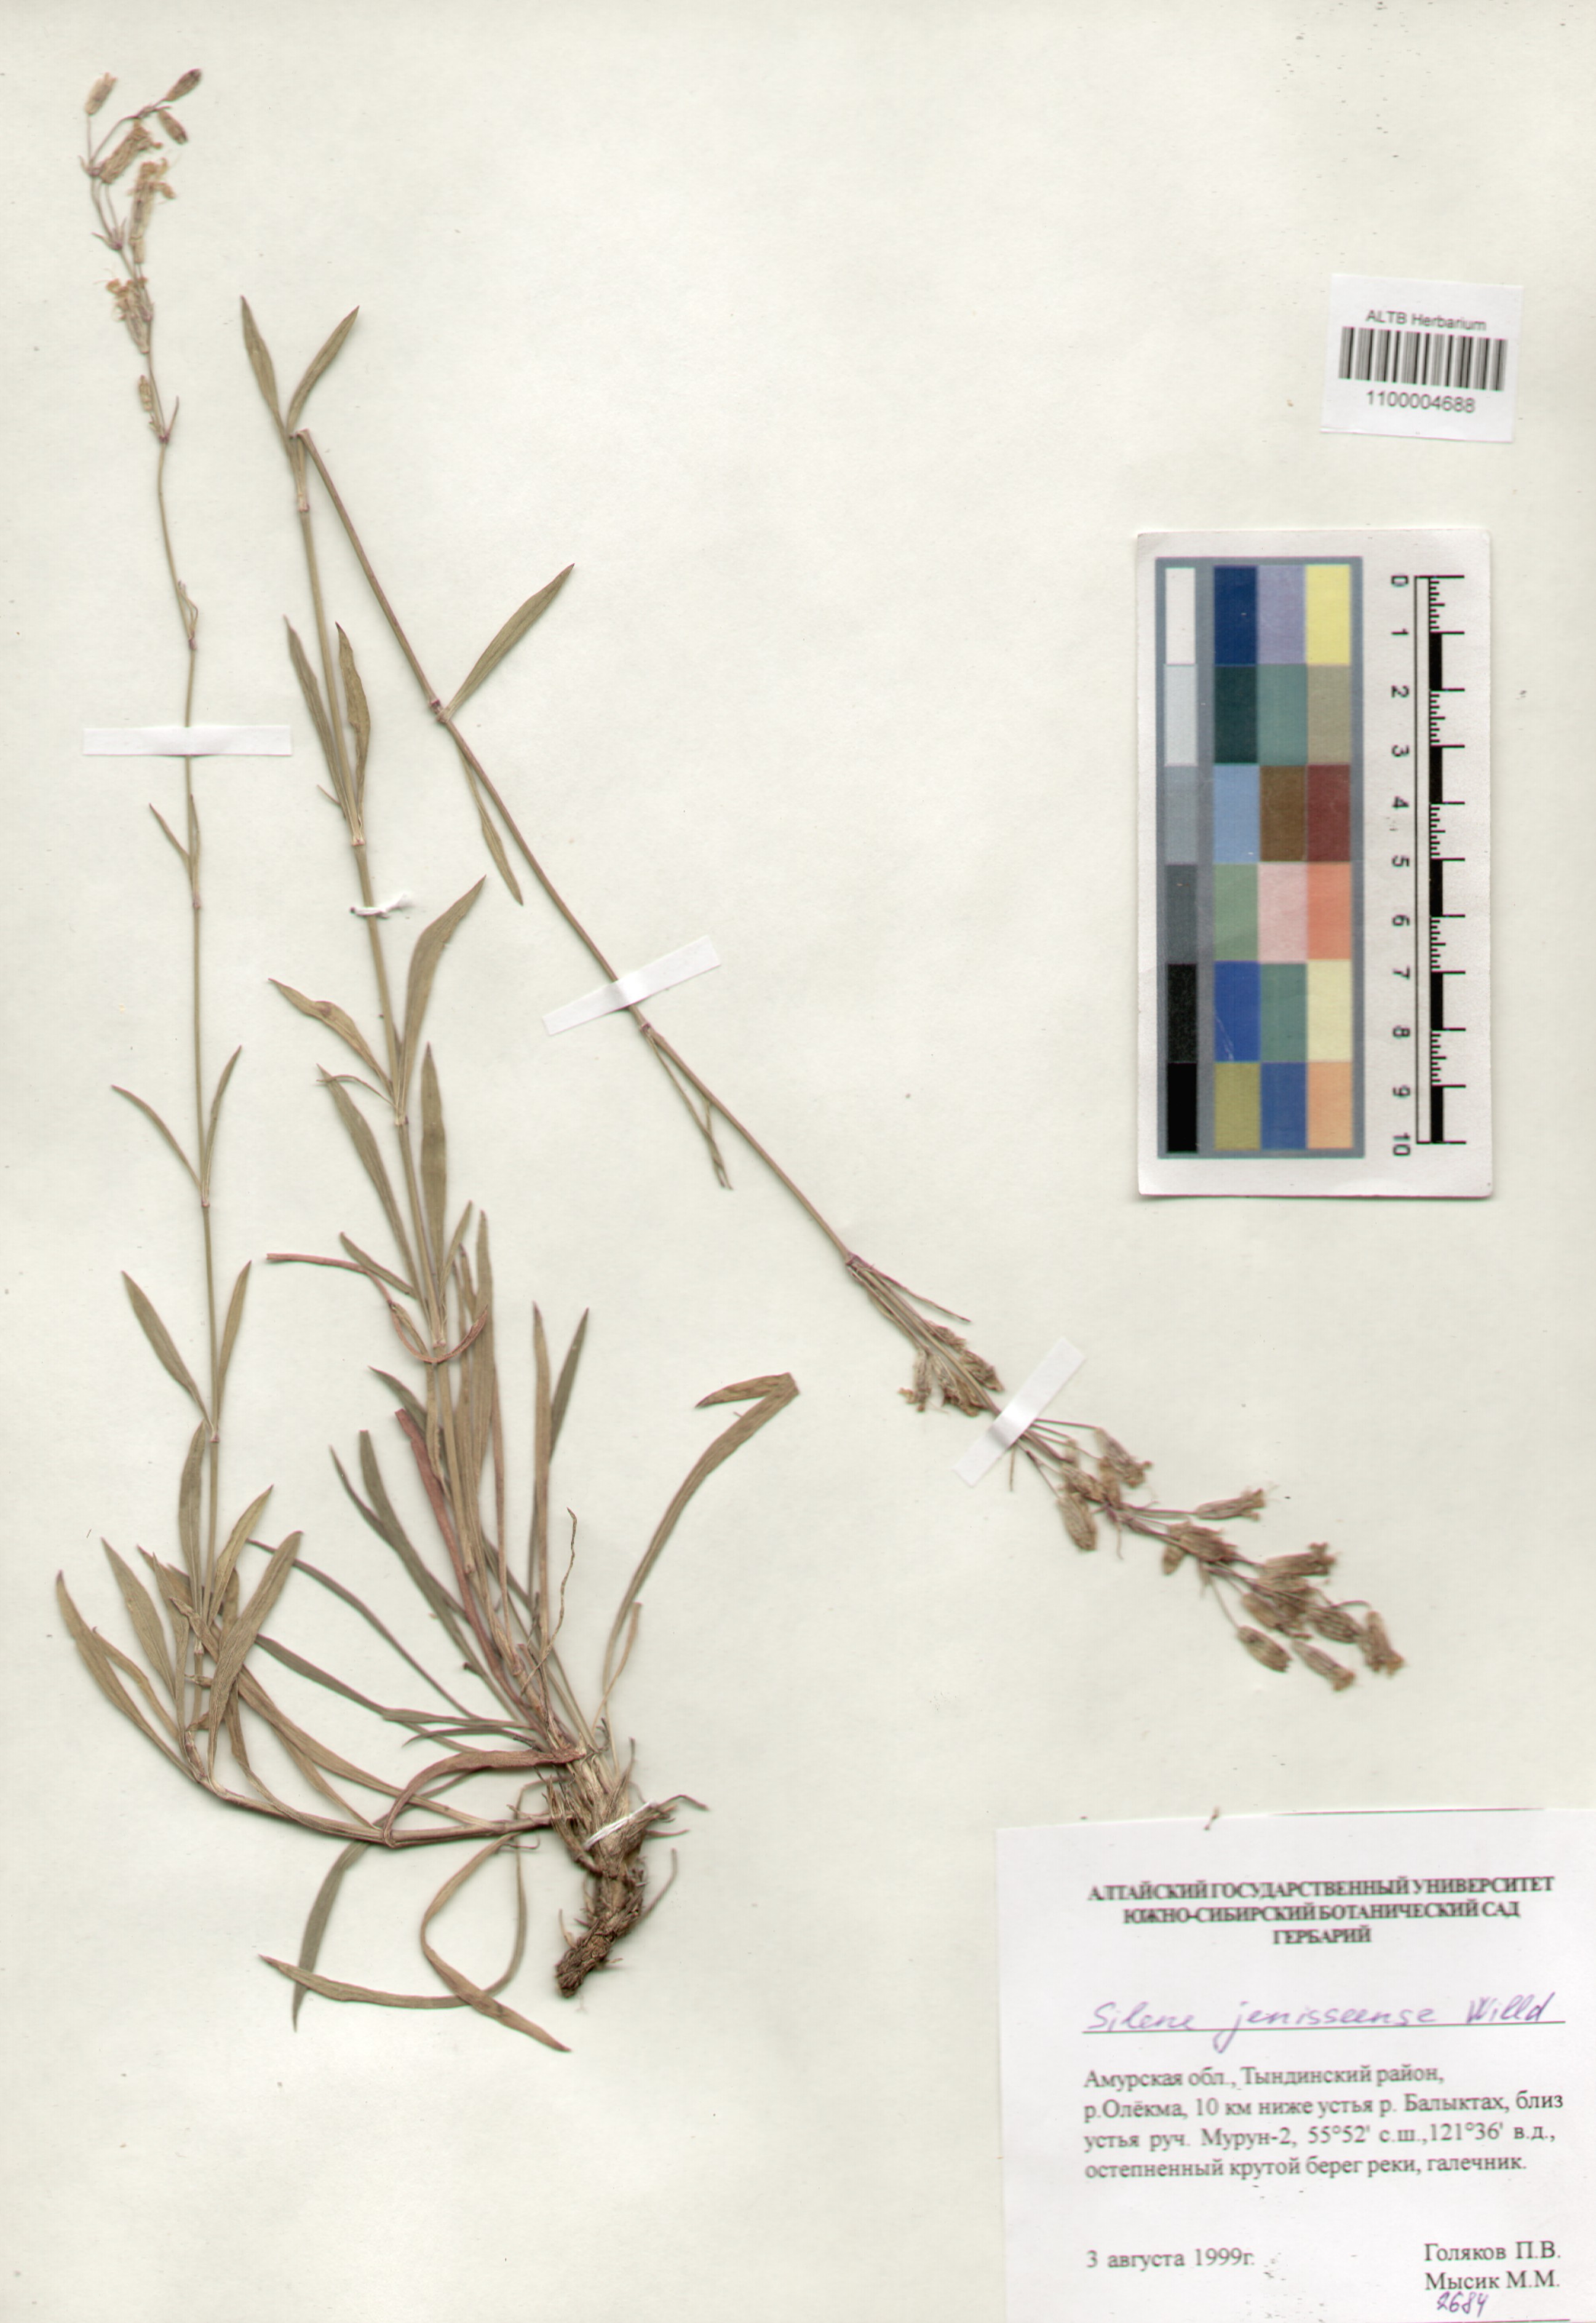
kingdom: Plantae
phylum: Tracheophyta
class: Magnoliopsida
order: Caryophyllales
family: Caryophyllaceae
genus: Silene
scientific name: Silene jeniseensis
